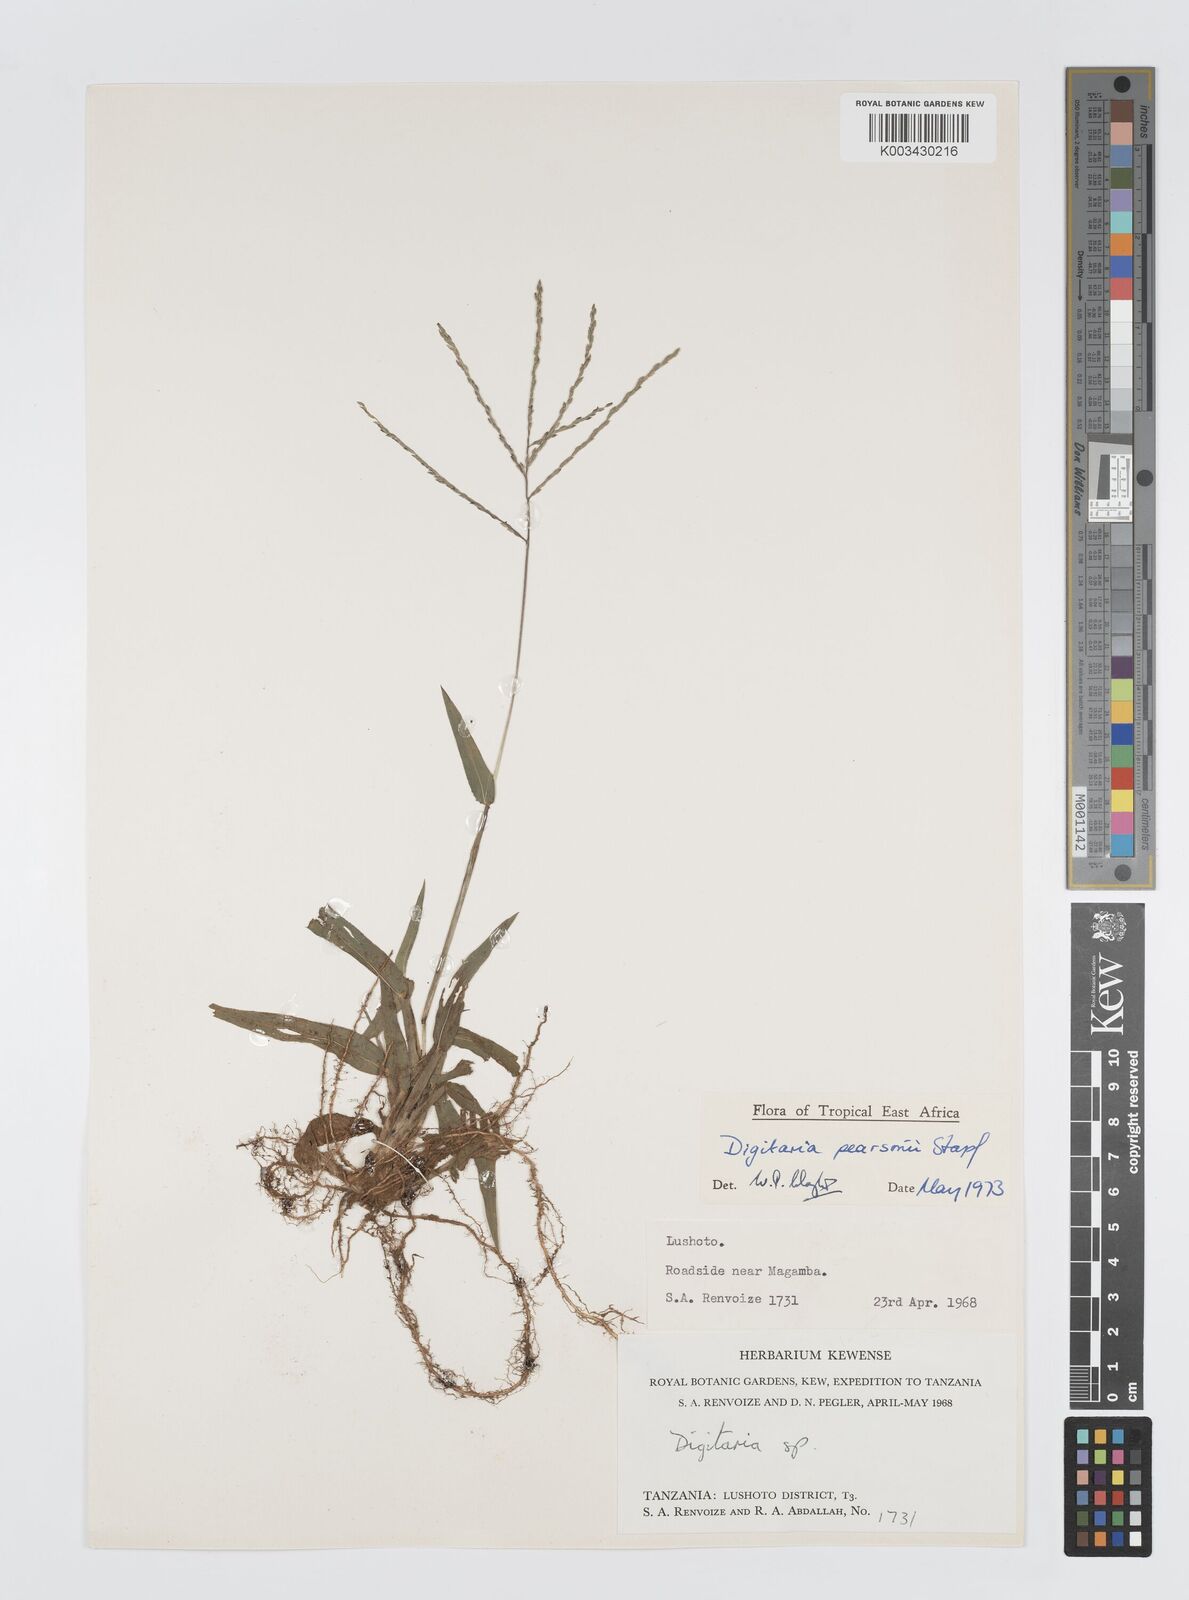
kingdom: Plantae
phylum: Tracheophyta
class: Liliopsida
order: Poales
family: Poaceae
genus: Digitaria
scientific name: Digitaria pearsonii
